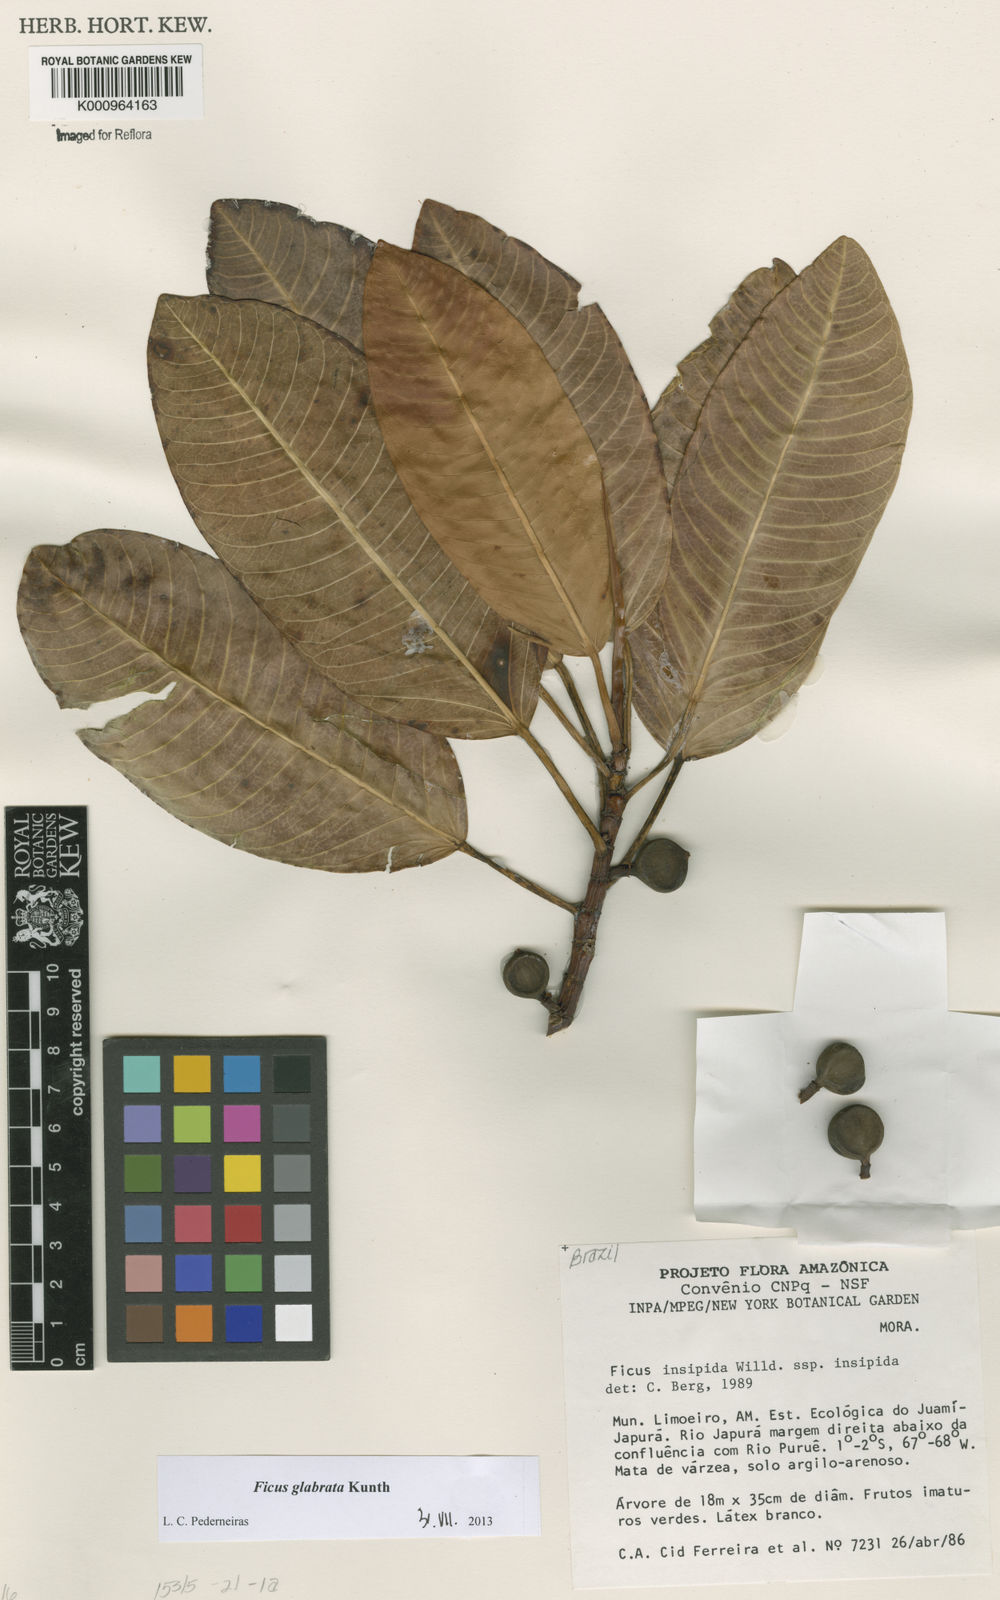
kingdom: Plantae
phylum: Tracheophyta
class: Magnoliopsida
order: Rosales
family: Moraceae
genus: Ficus
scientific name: Ficus insipida
